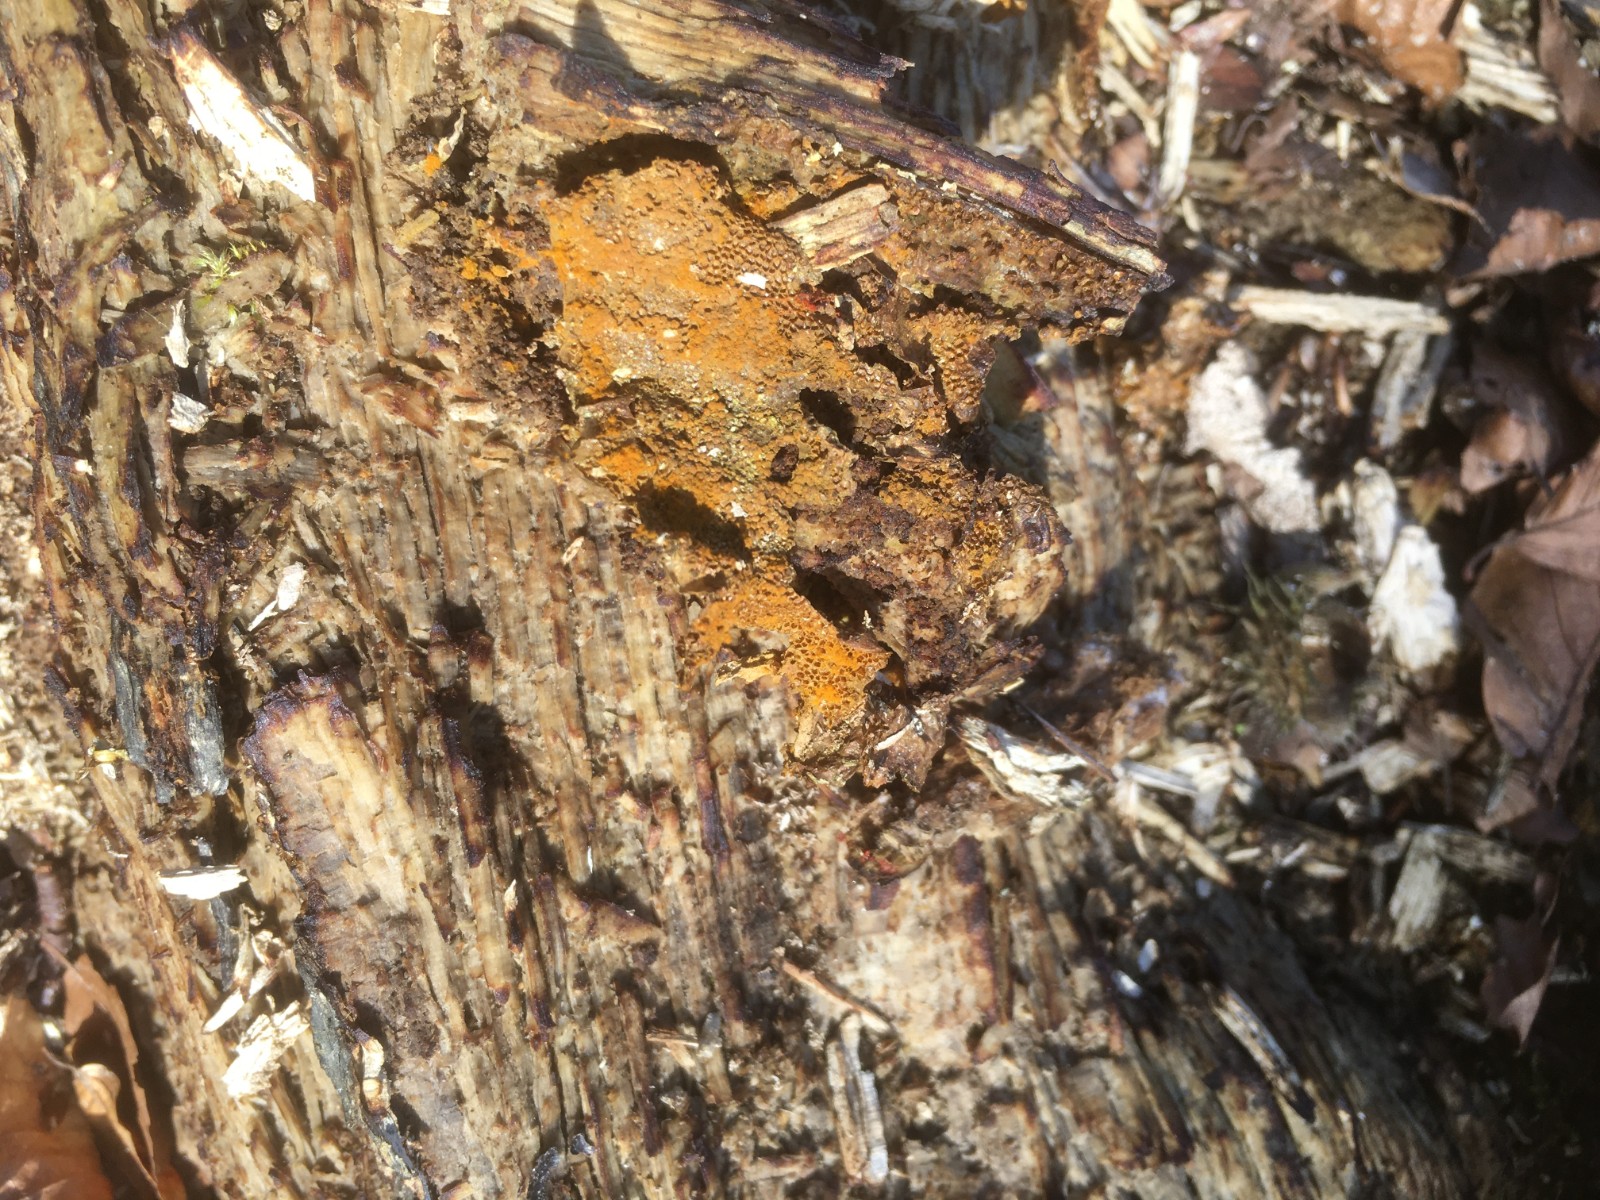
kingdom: Protozoa
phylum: Mycetozoa
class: Myxomycetes
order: Trichiales
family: Trichiaceae
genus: Trichia
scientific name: Trichia scabra
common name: tæppe-hårbold
